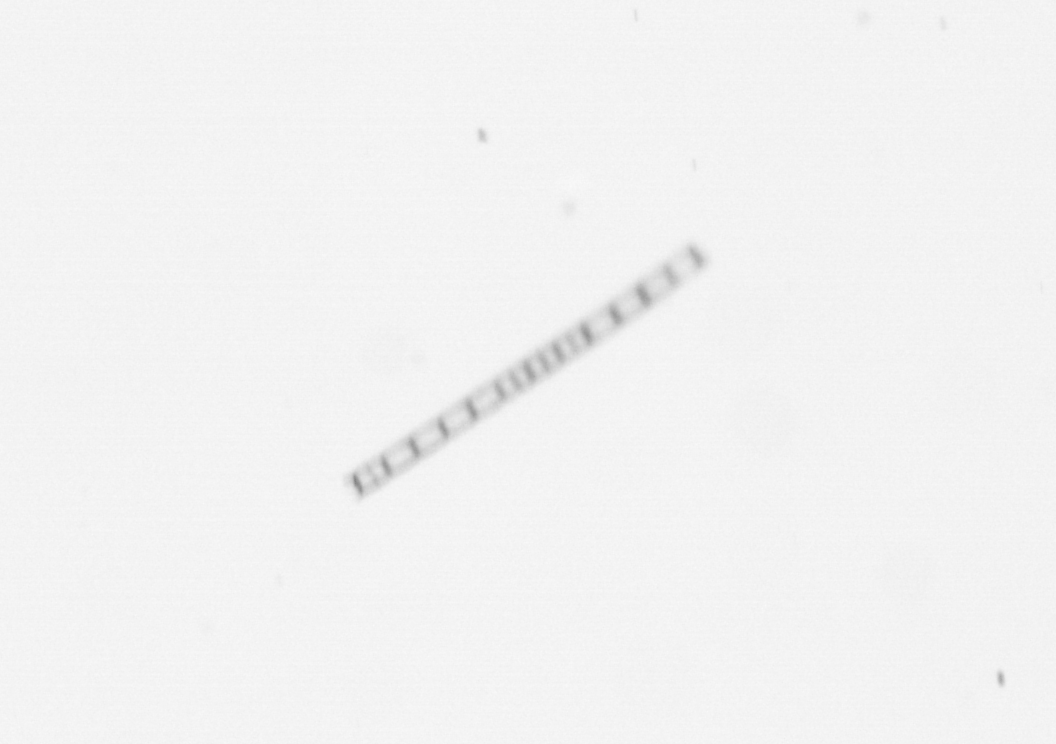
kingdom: Chromista
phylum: Ochrophyta
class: Bacillariophyceae
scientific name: Bacillariophyceae
